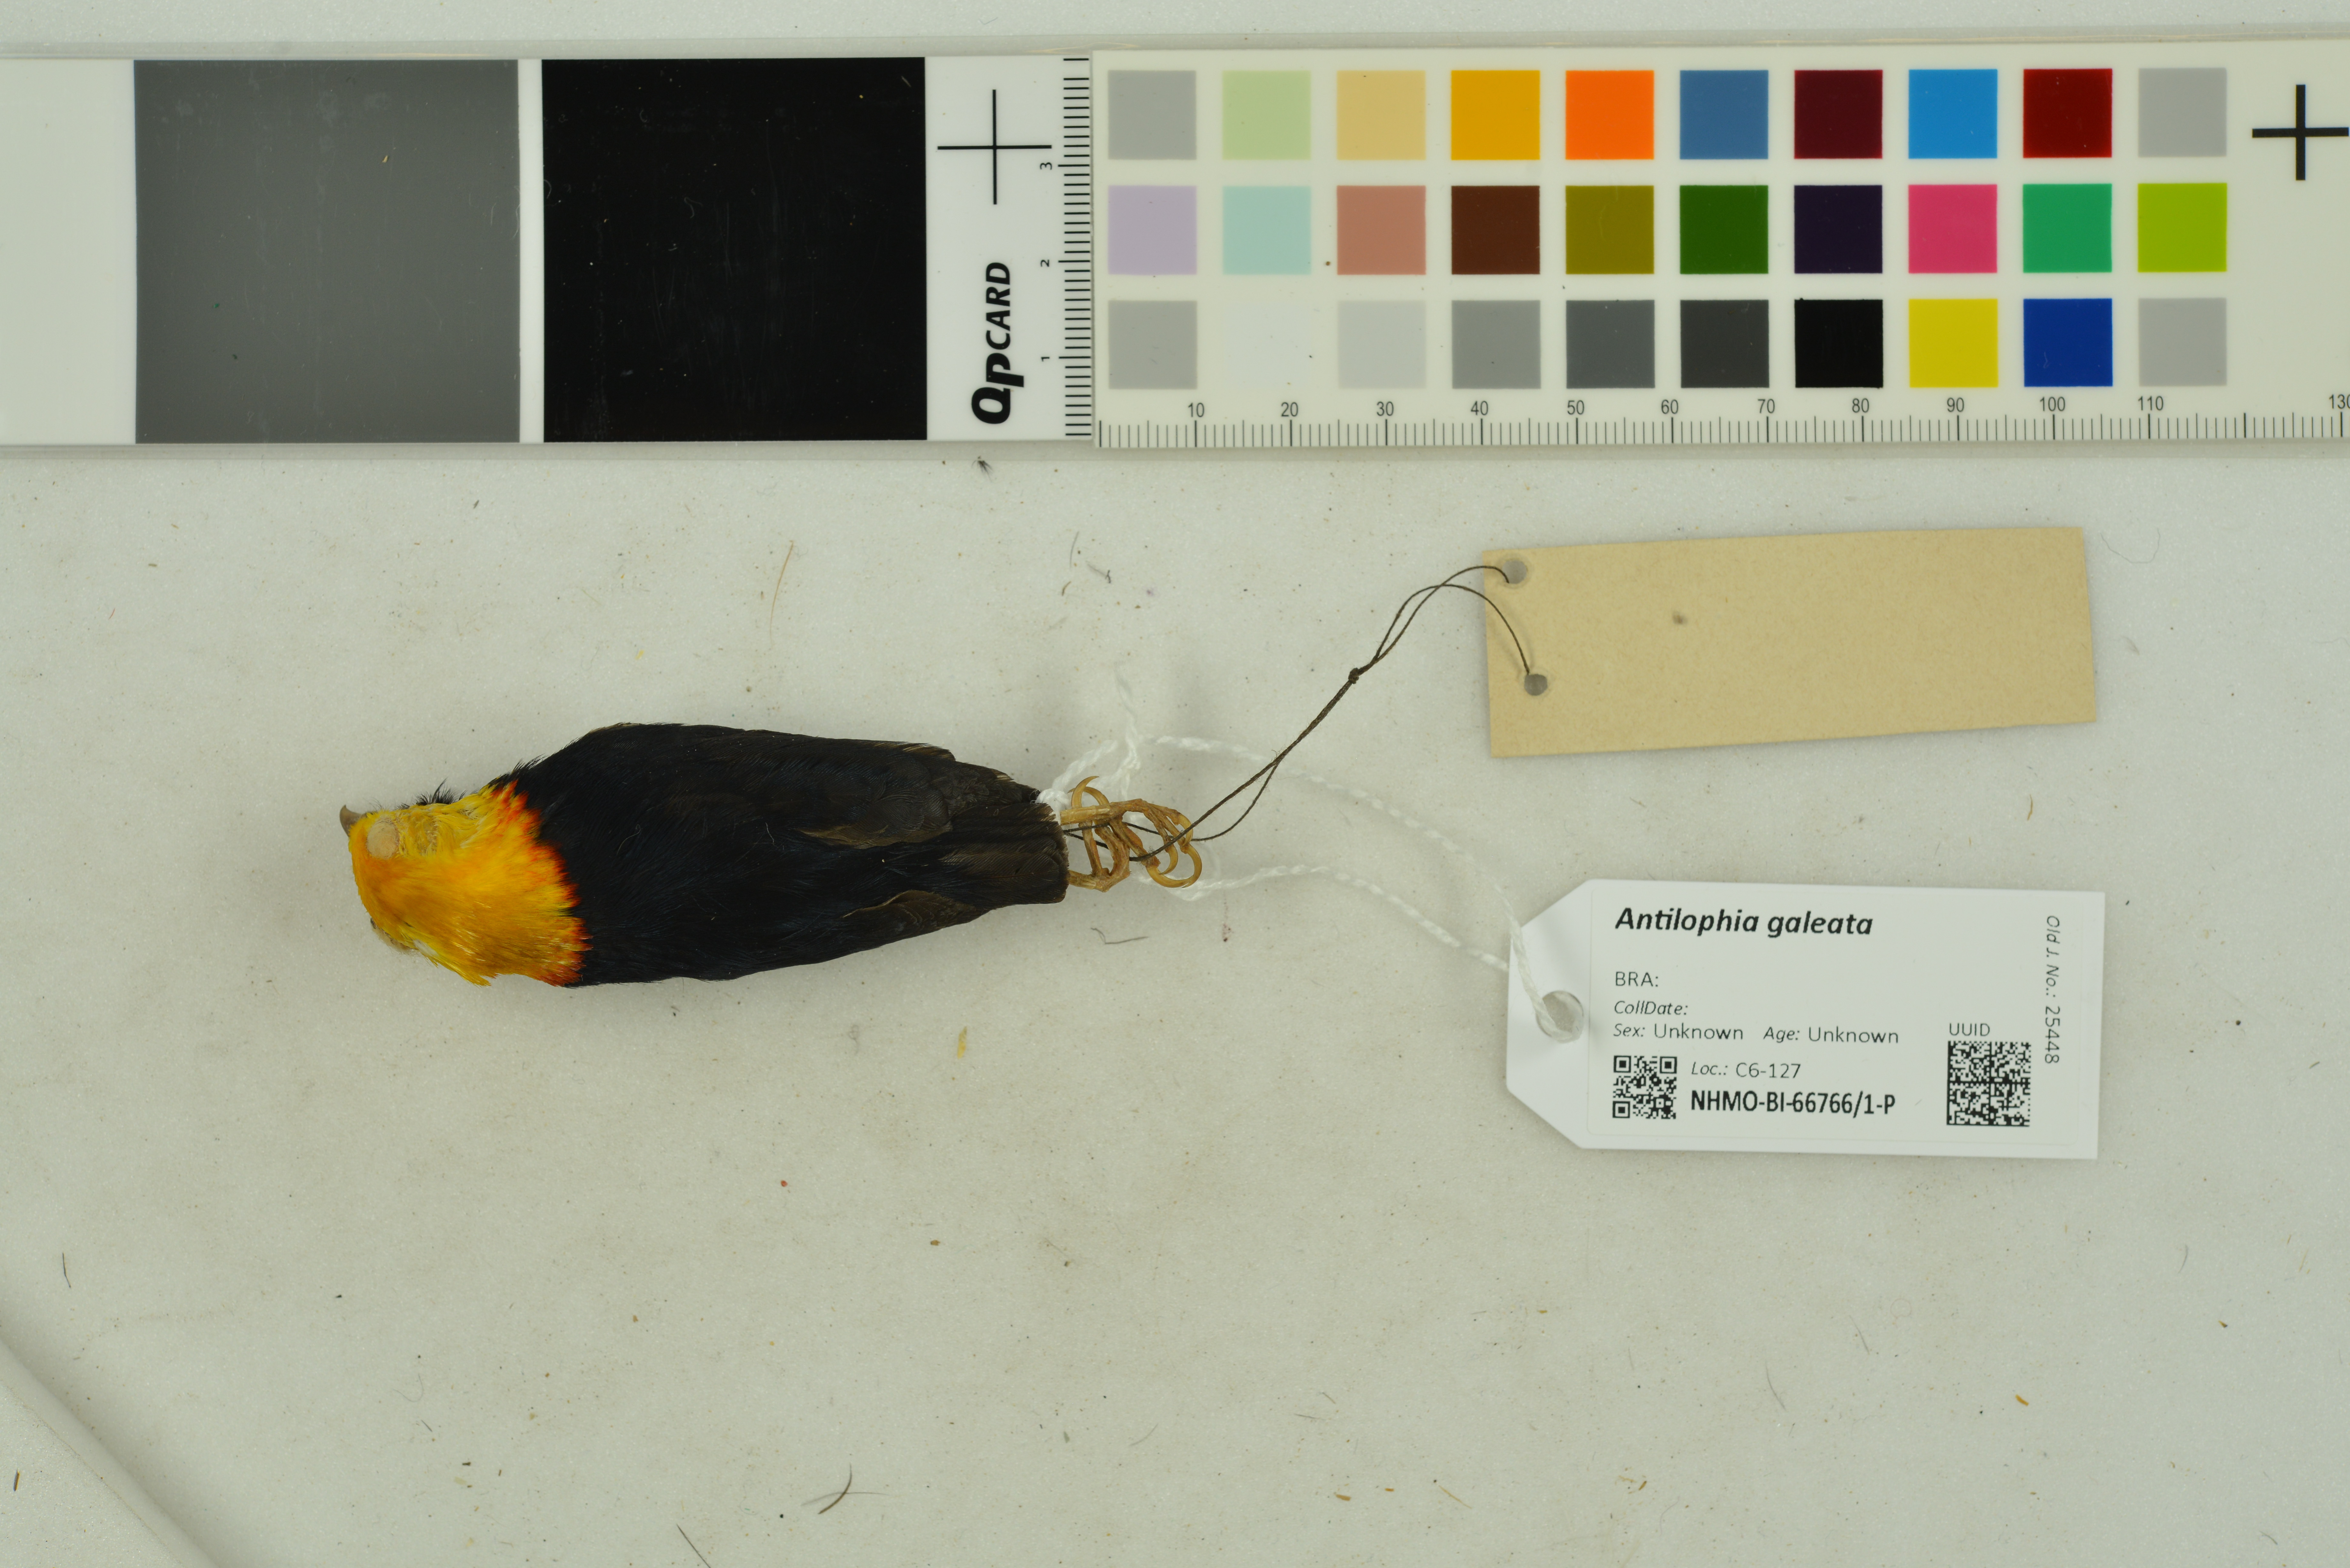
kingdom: Animalia
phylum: Chordata
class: Aves
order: Passeriformes
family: Pipridae
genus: Antilophia
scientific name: Antilophia galeata
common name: Helmeted manakin
